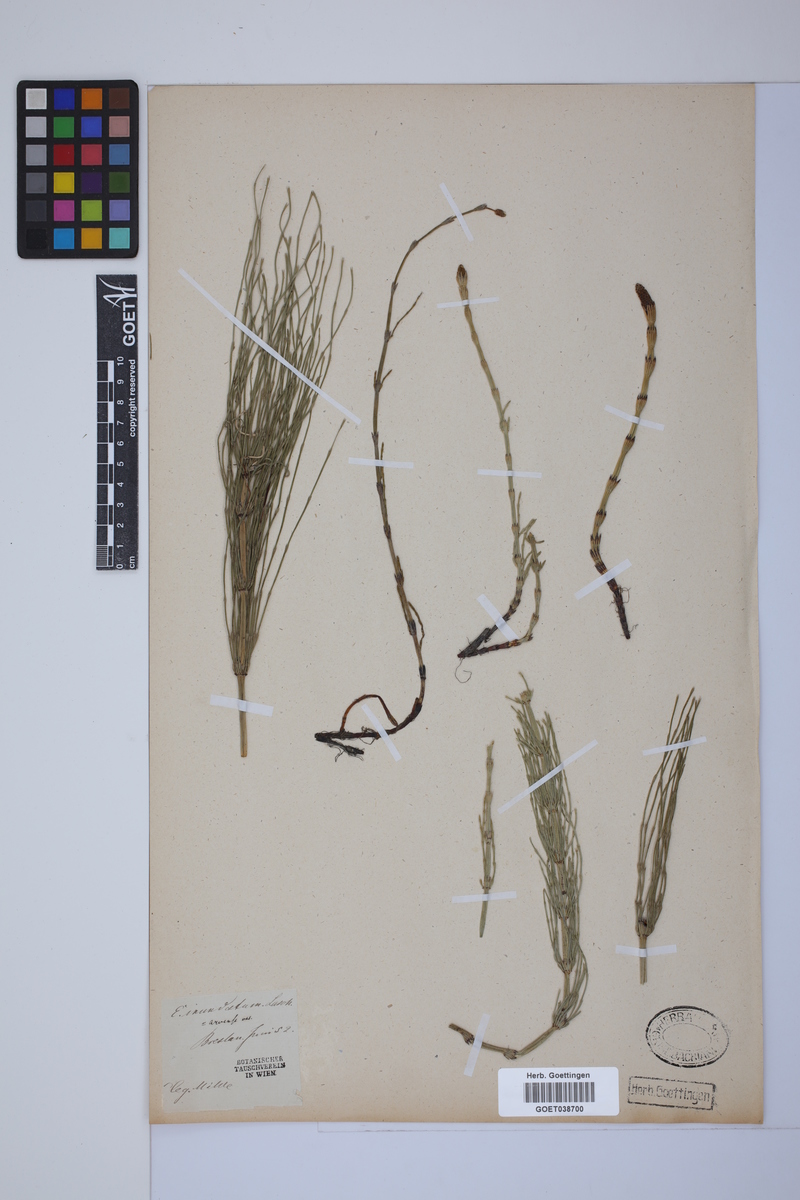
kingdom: Plantae
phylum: Tracheophyta
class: Polypodiopsida
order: Equisetales
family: Equisetaceae
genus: Equisetum
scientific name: Equisetum litorale
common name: Littoral horsetail
